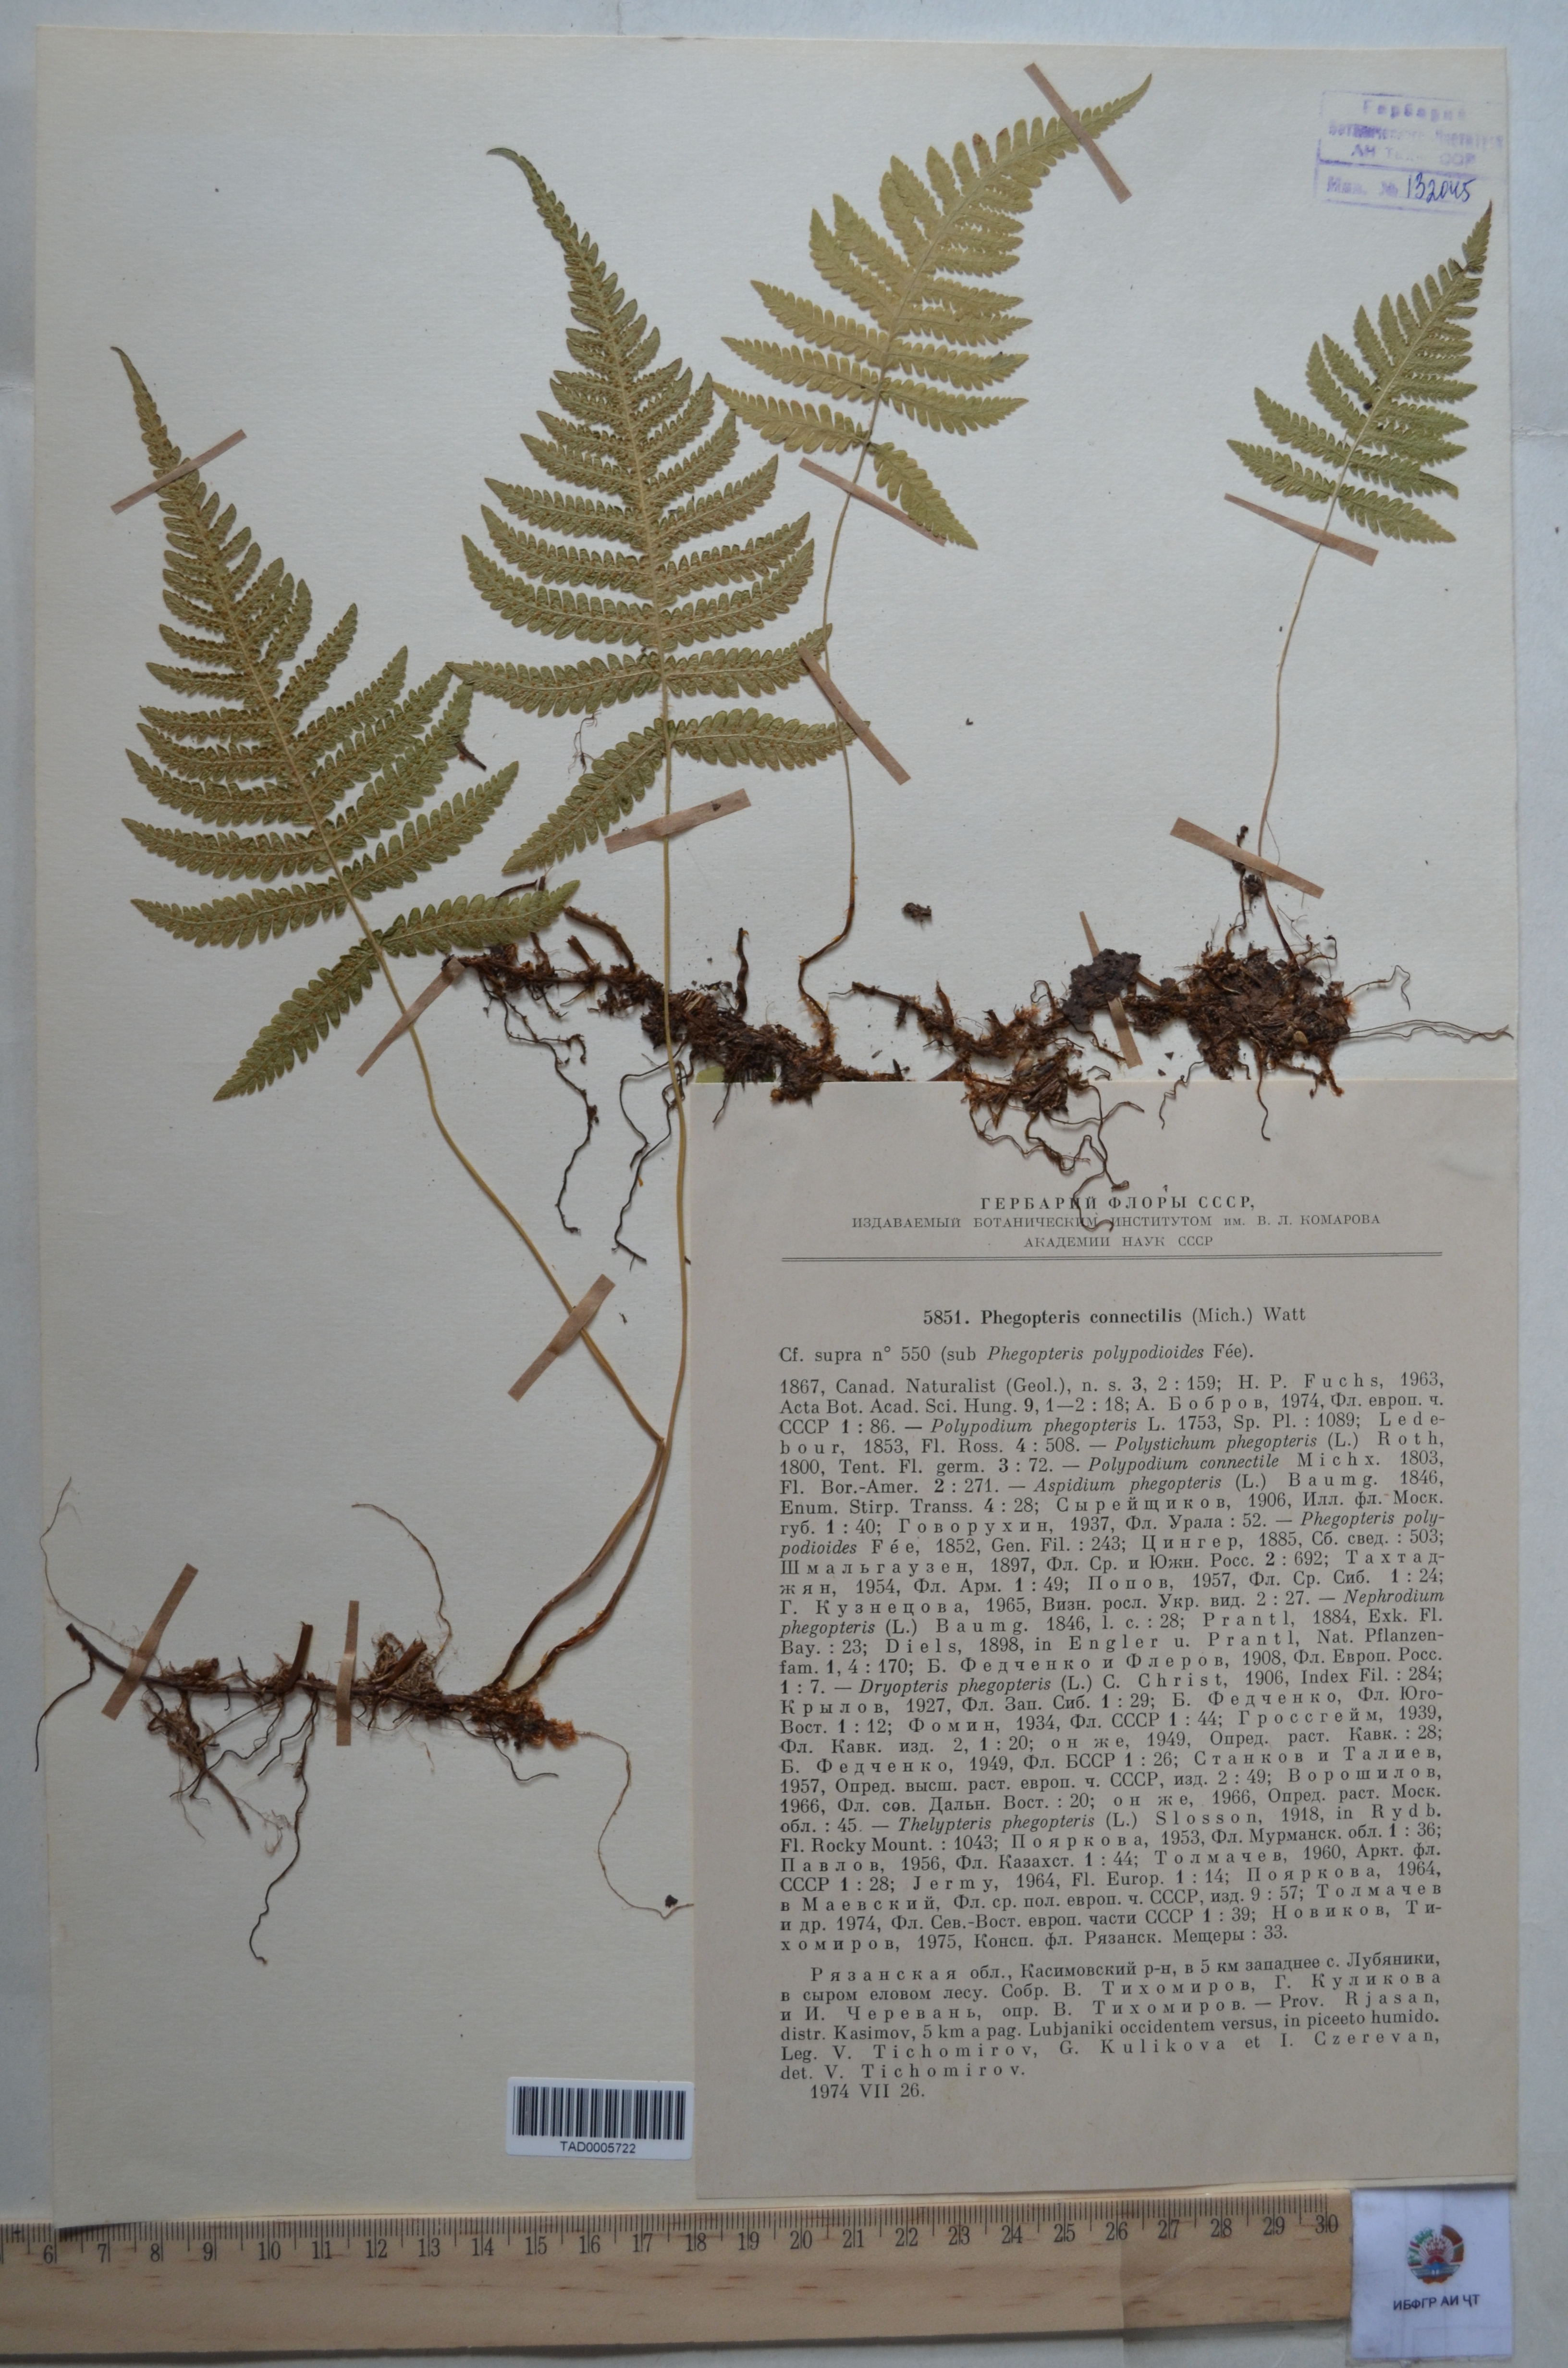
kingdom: Plantae
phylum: Tracheophyta
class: Polypodiopsida
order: Polypodiales
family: Thelypteridaceae
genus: Phegopteris
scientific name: Phegopteris connectilis
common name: Beech fern
